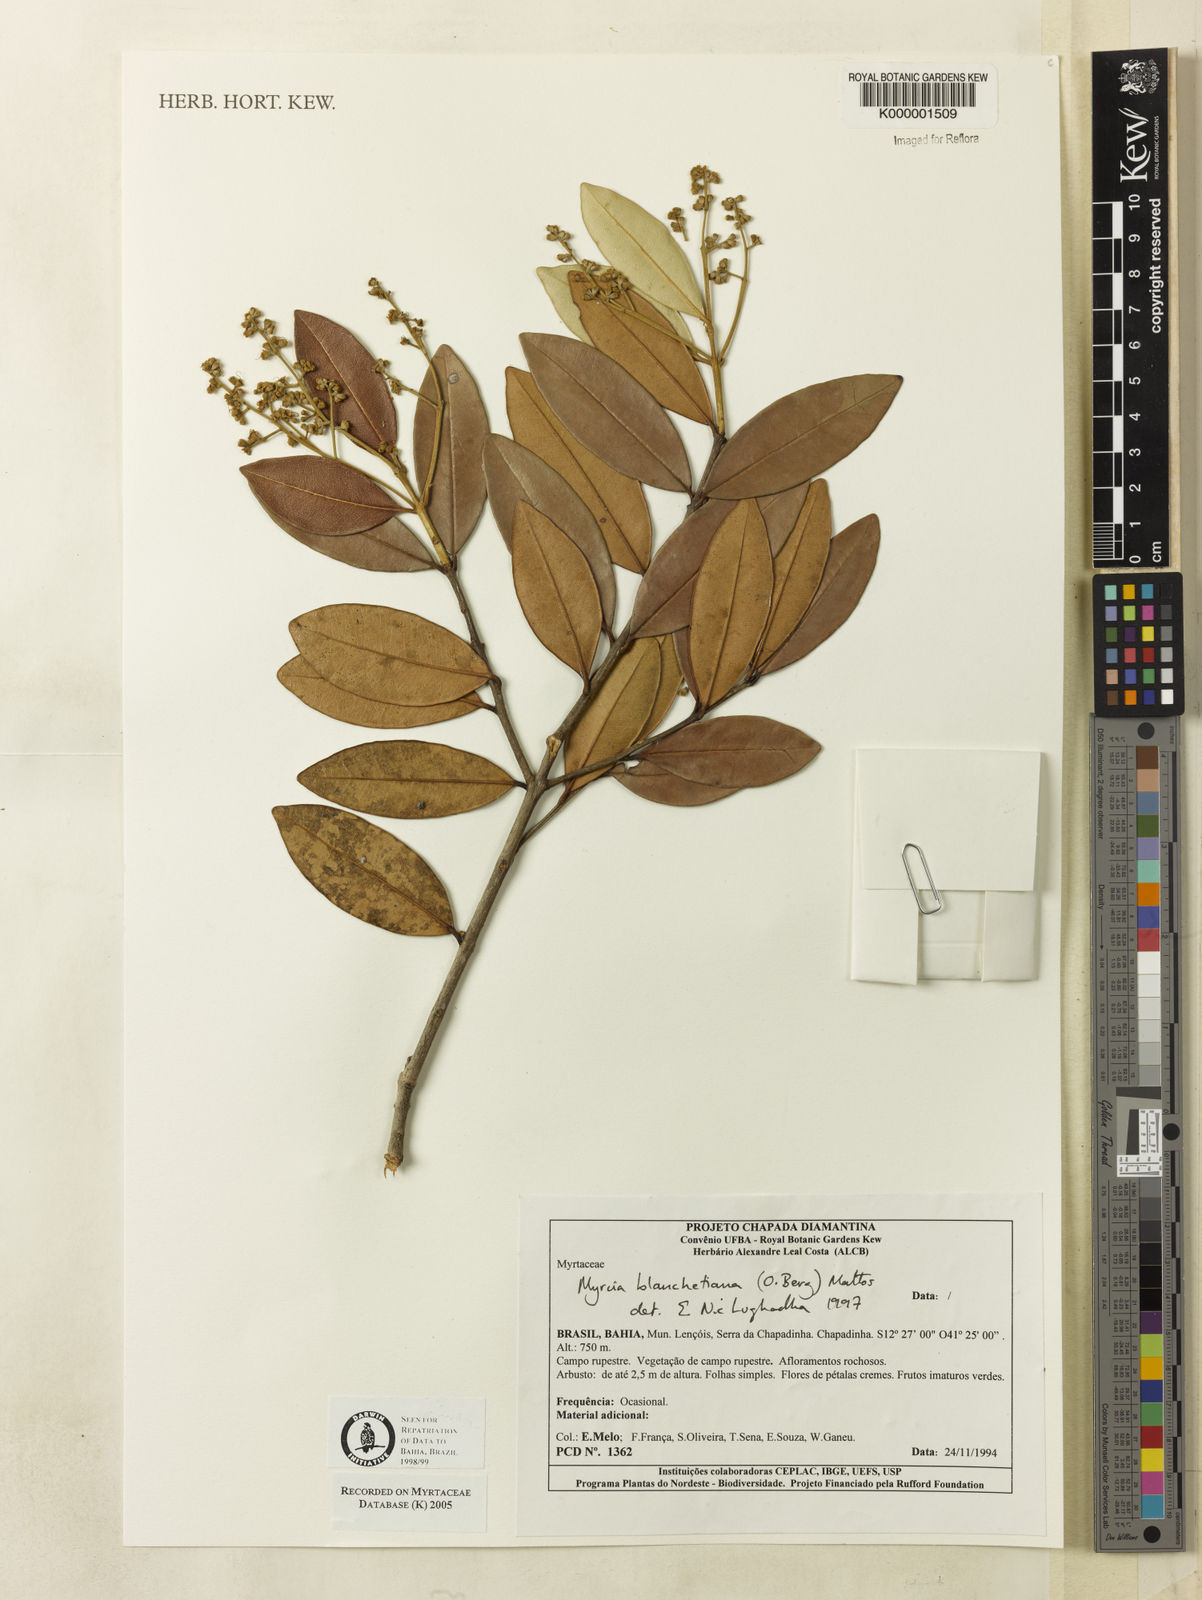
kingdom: Plantae
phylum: Tracheophyta
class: Magnoliopsida
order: Myrtales
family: Myrtaceae
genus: Myrcia
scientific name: Myrcia blanchetiana
